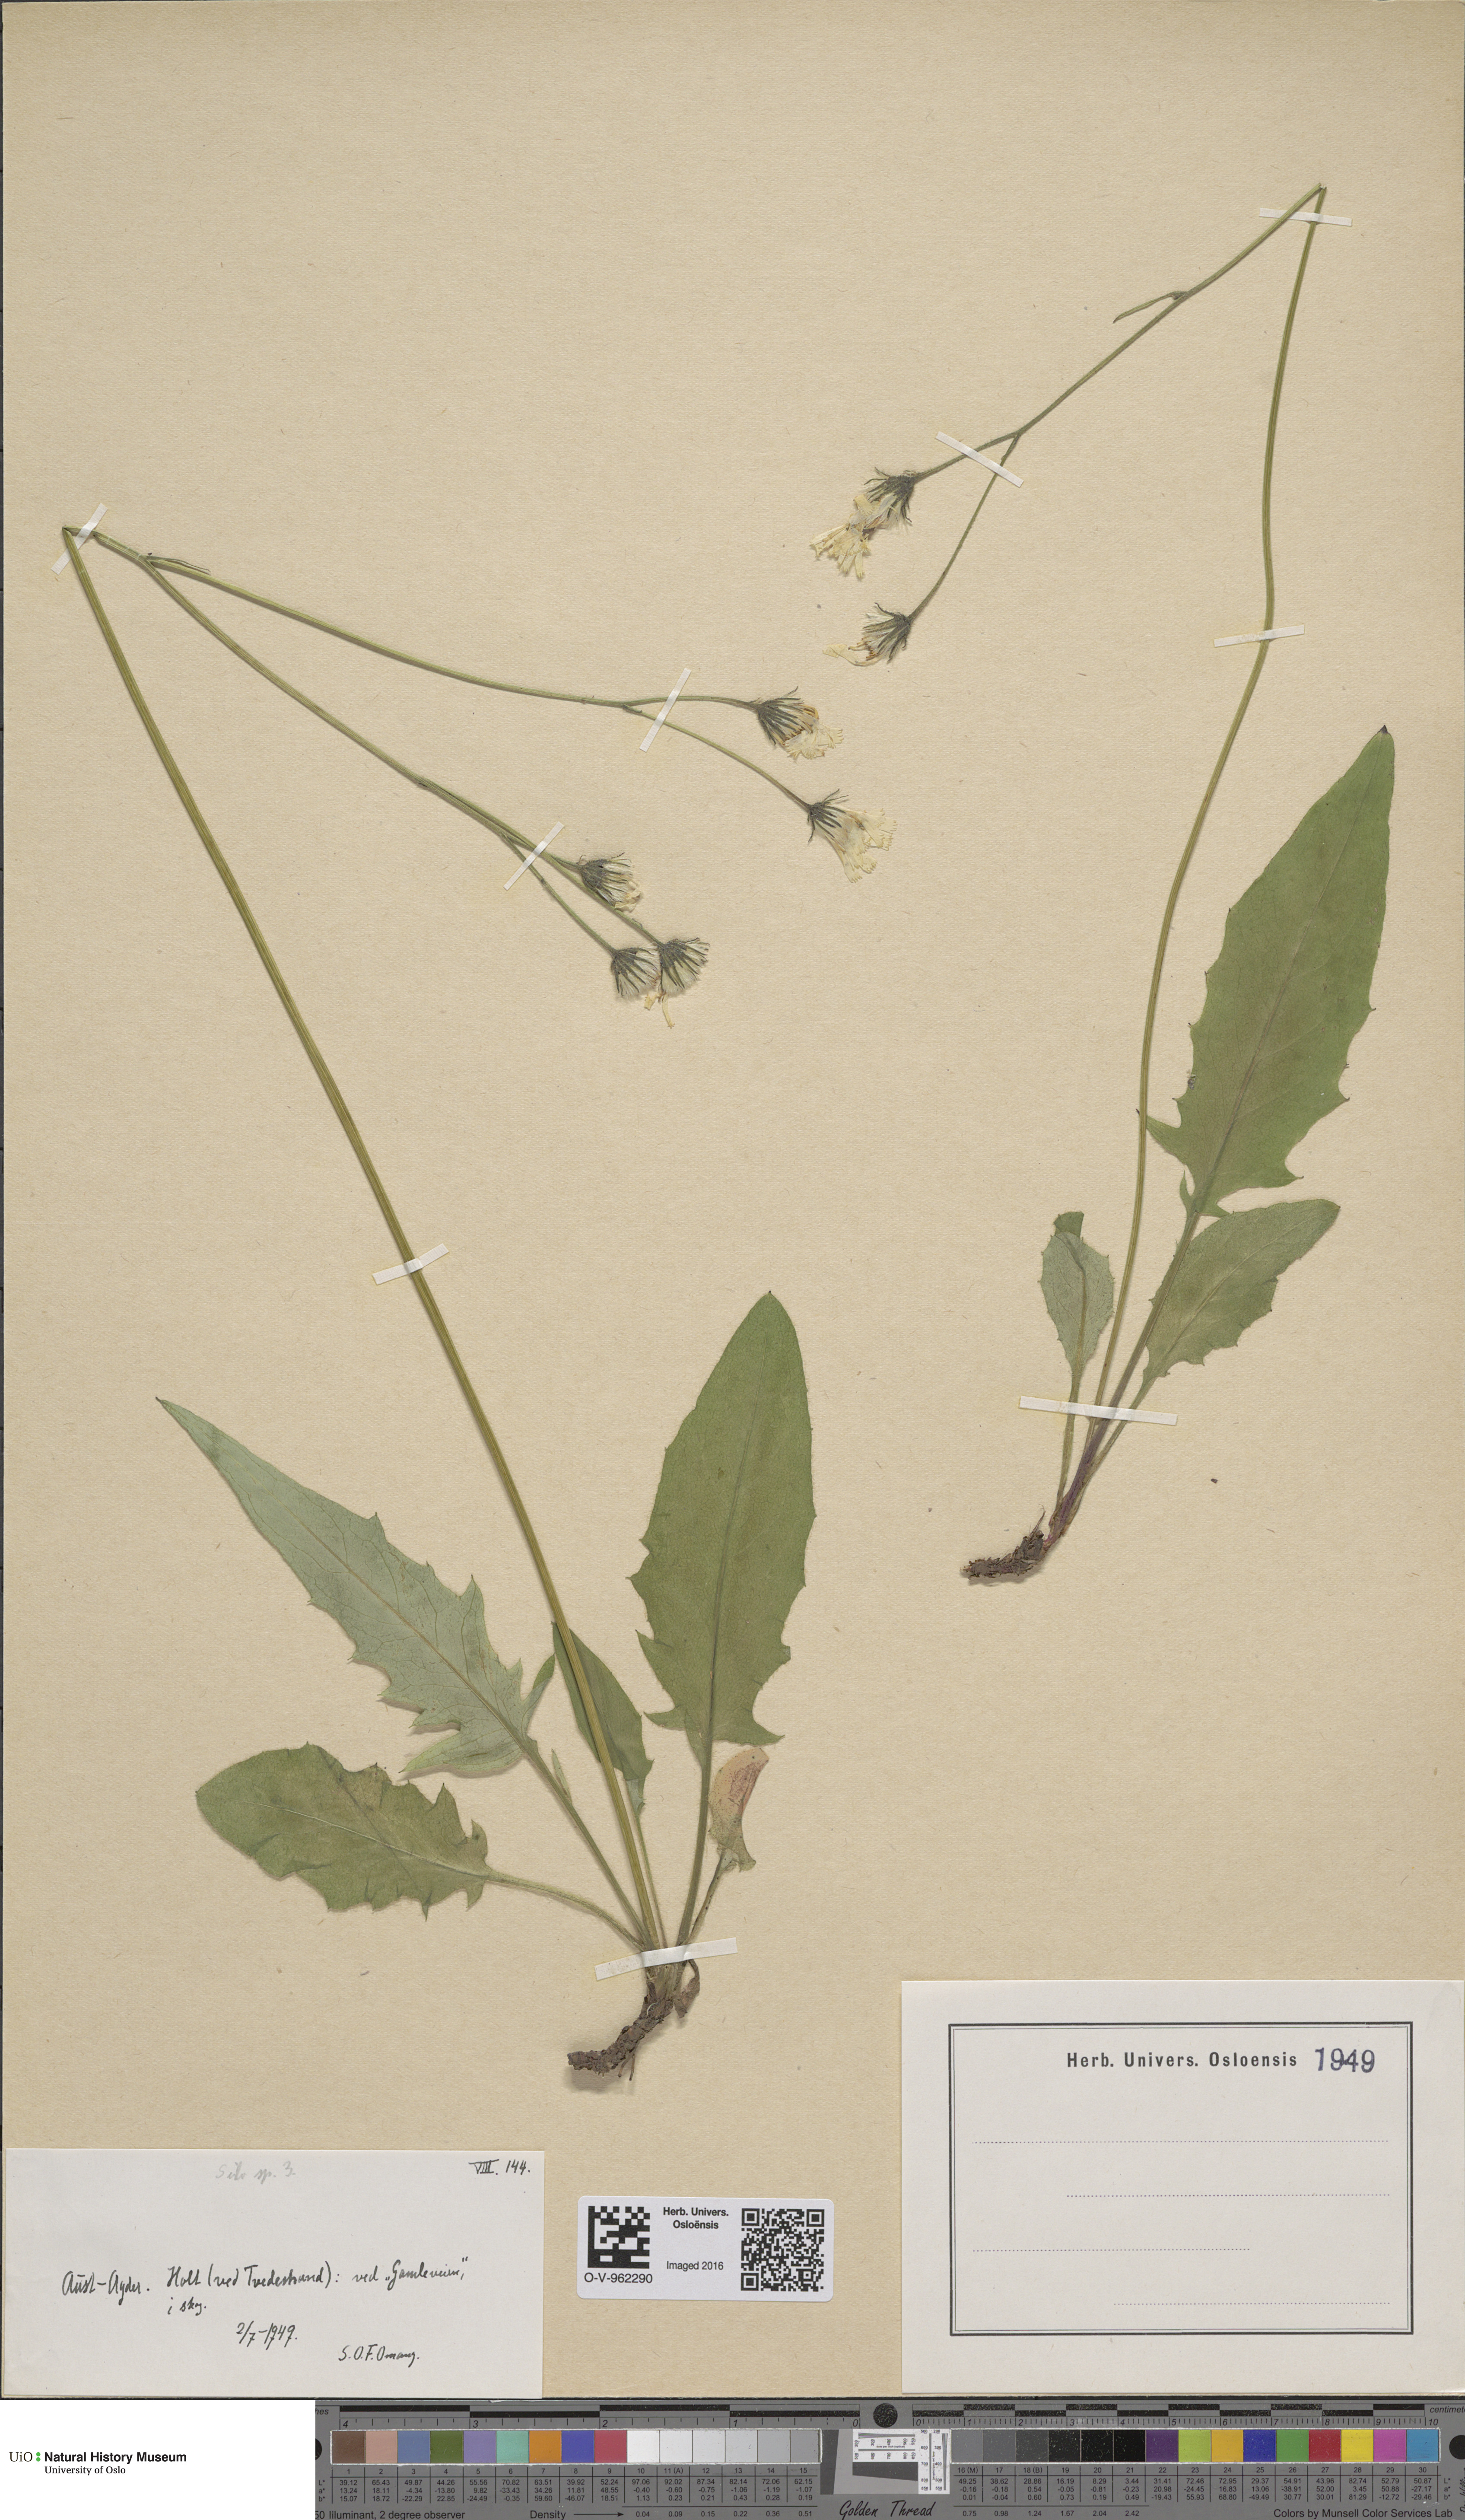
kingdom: Plantae
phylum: Tracheophyta
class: Magnoliopsida
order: Asterales
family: Asteraceae
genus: Hieracium
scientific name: Hieracium
